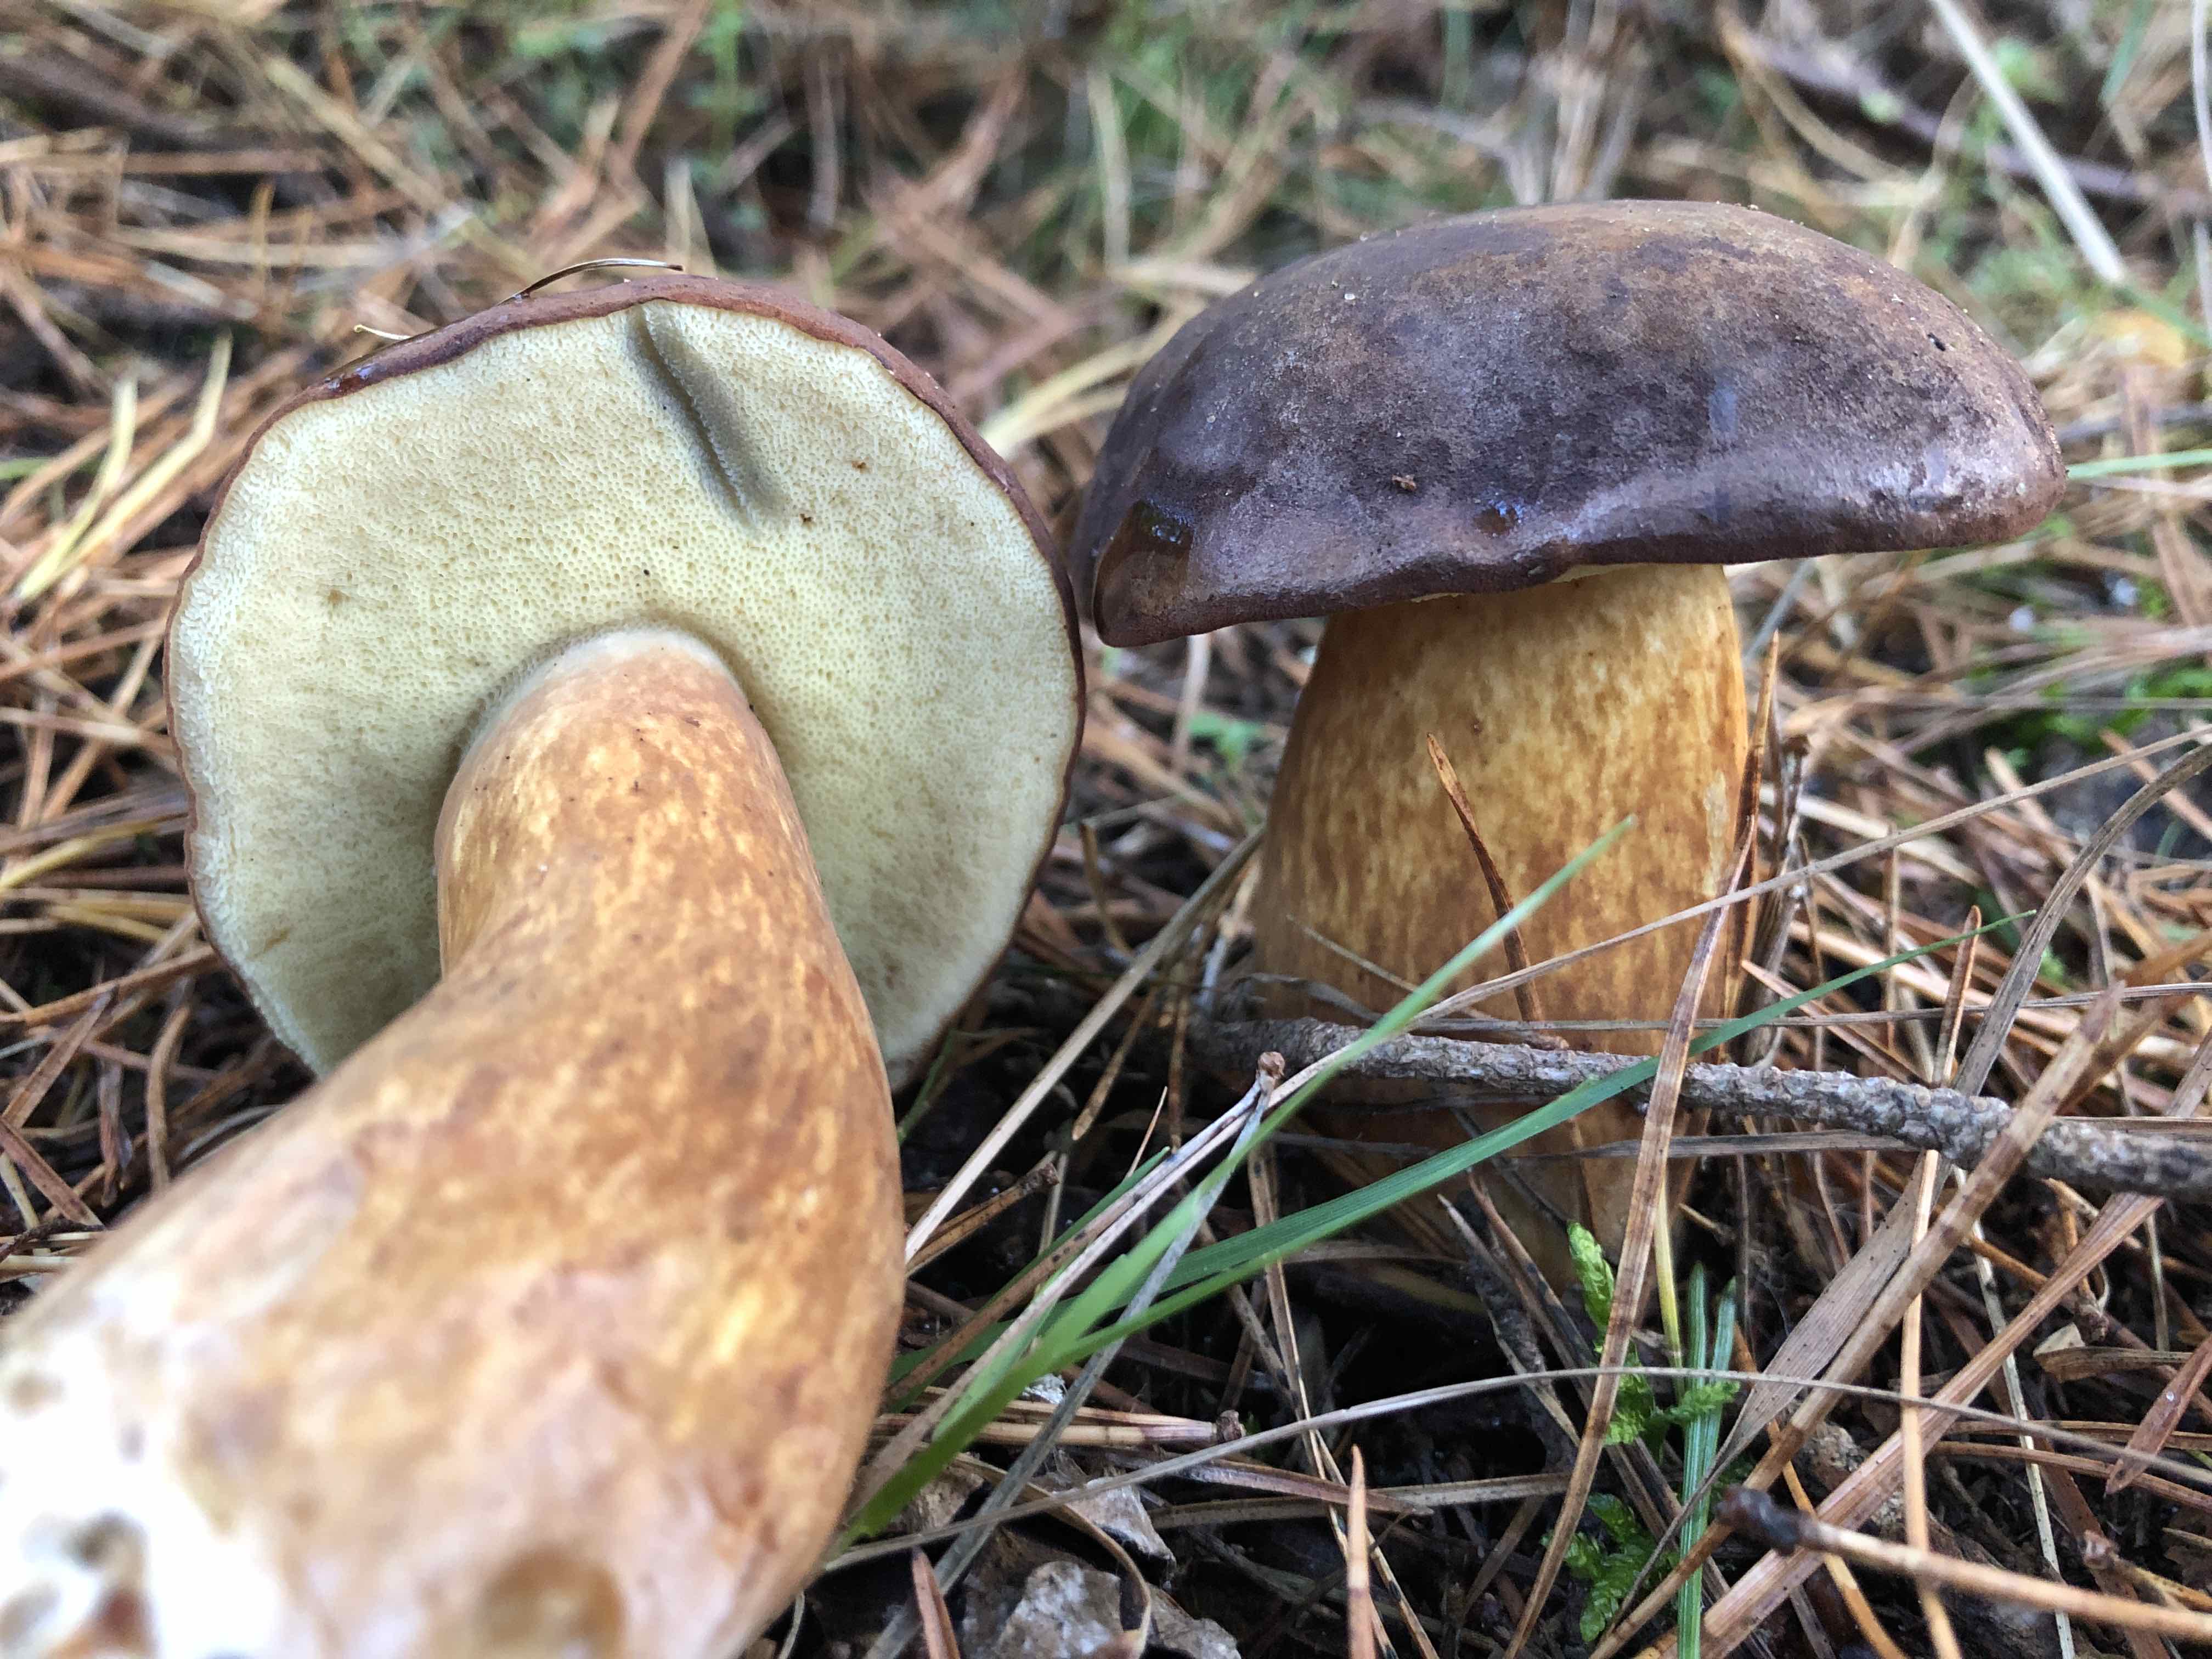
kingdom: Fungi
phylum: Basidiomycota
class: Agaricomycetes
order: Boletales
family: Boletaceae
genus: Imleria
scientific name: Imleria badia
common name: brunstokket rørhat
